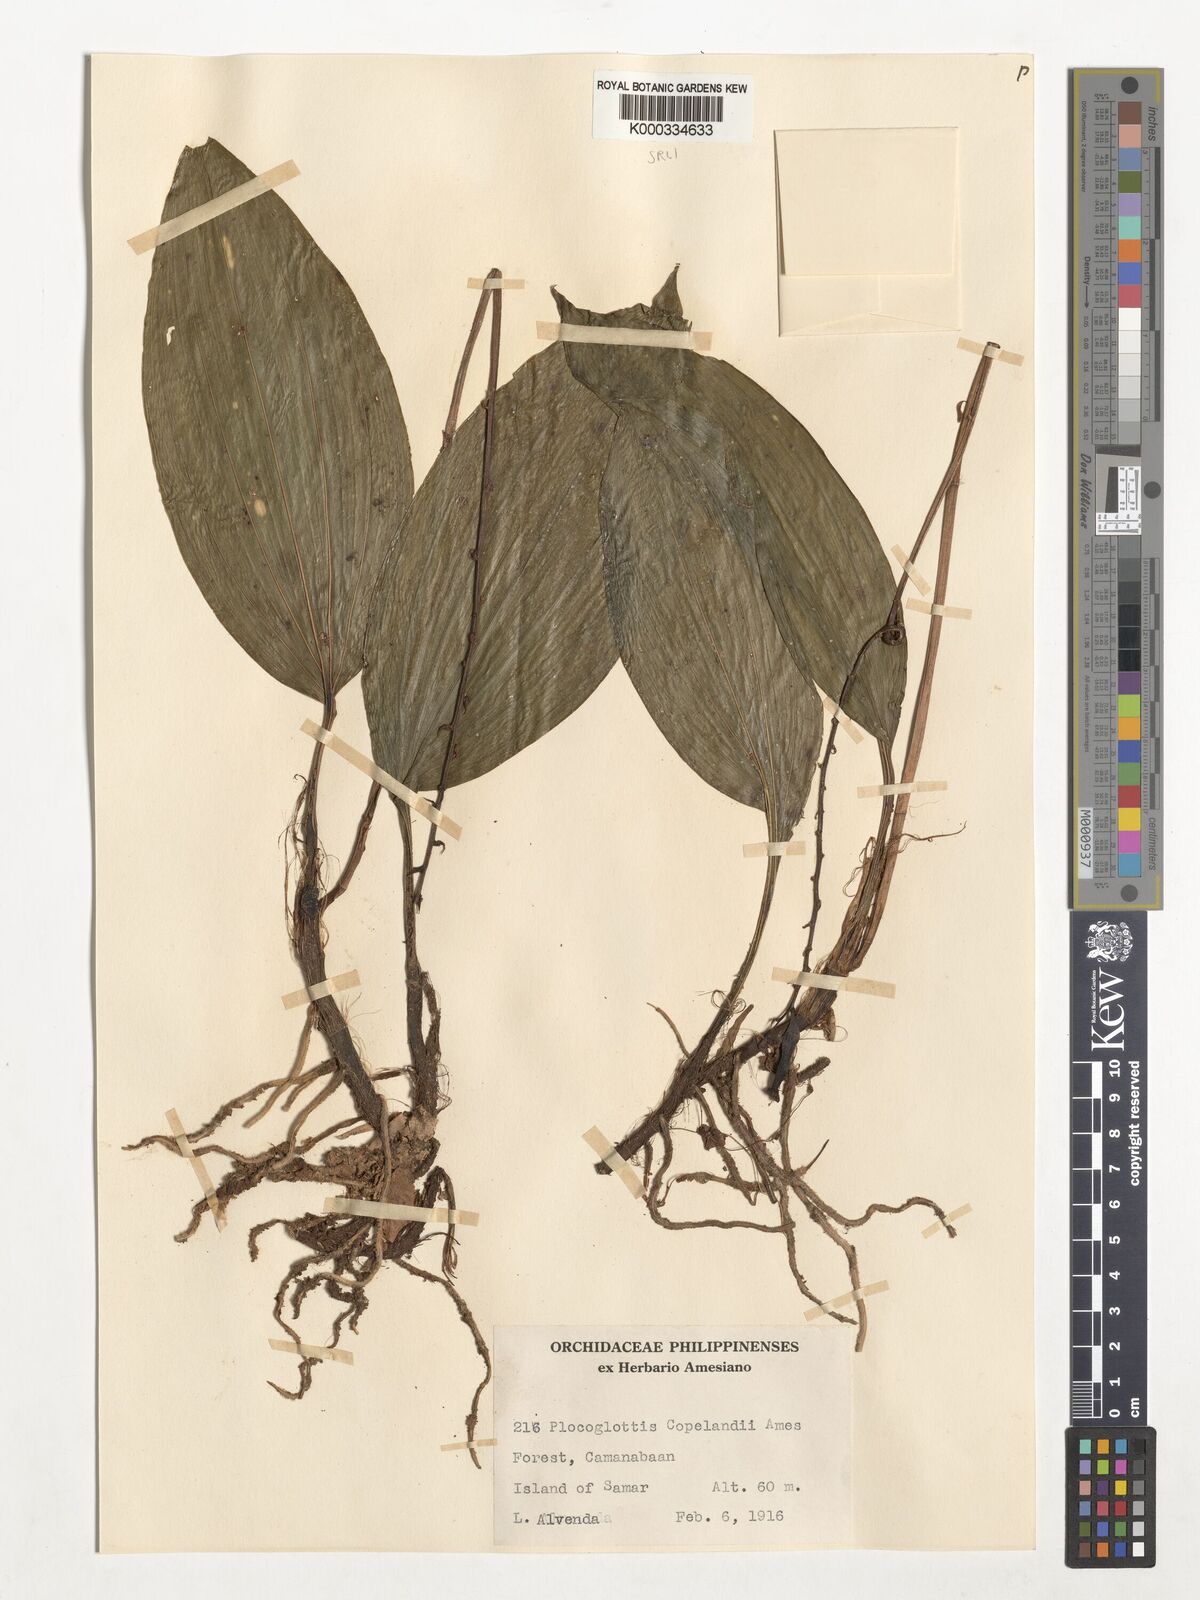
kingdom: Plantae
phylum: Tracheophyta
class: Liliopsida
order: Asparagales
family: Orchidaceae
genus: Plocoglottis
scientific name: Plocoglottis copelandii
